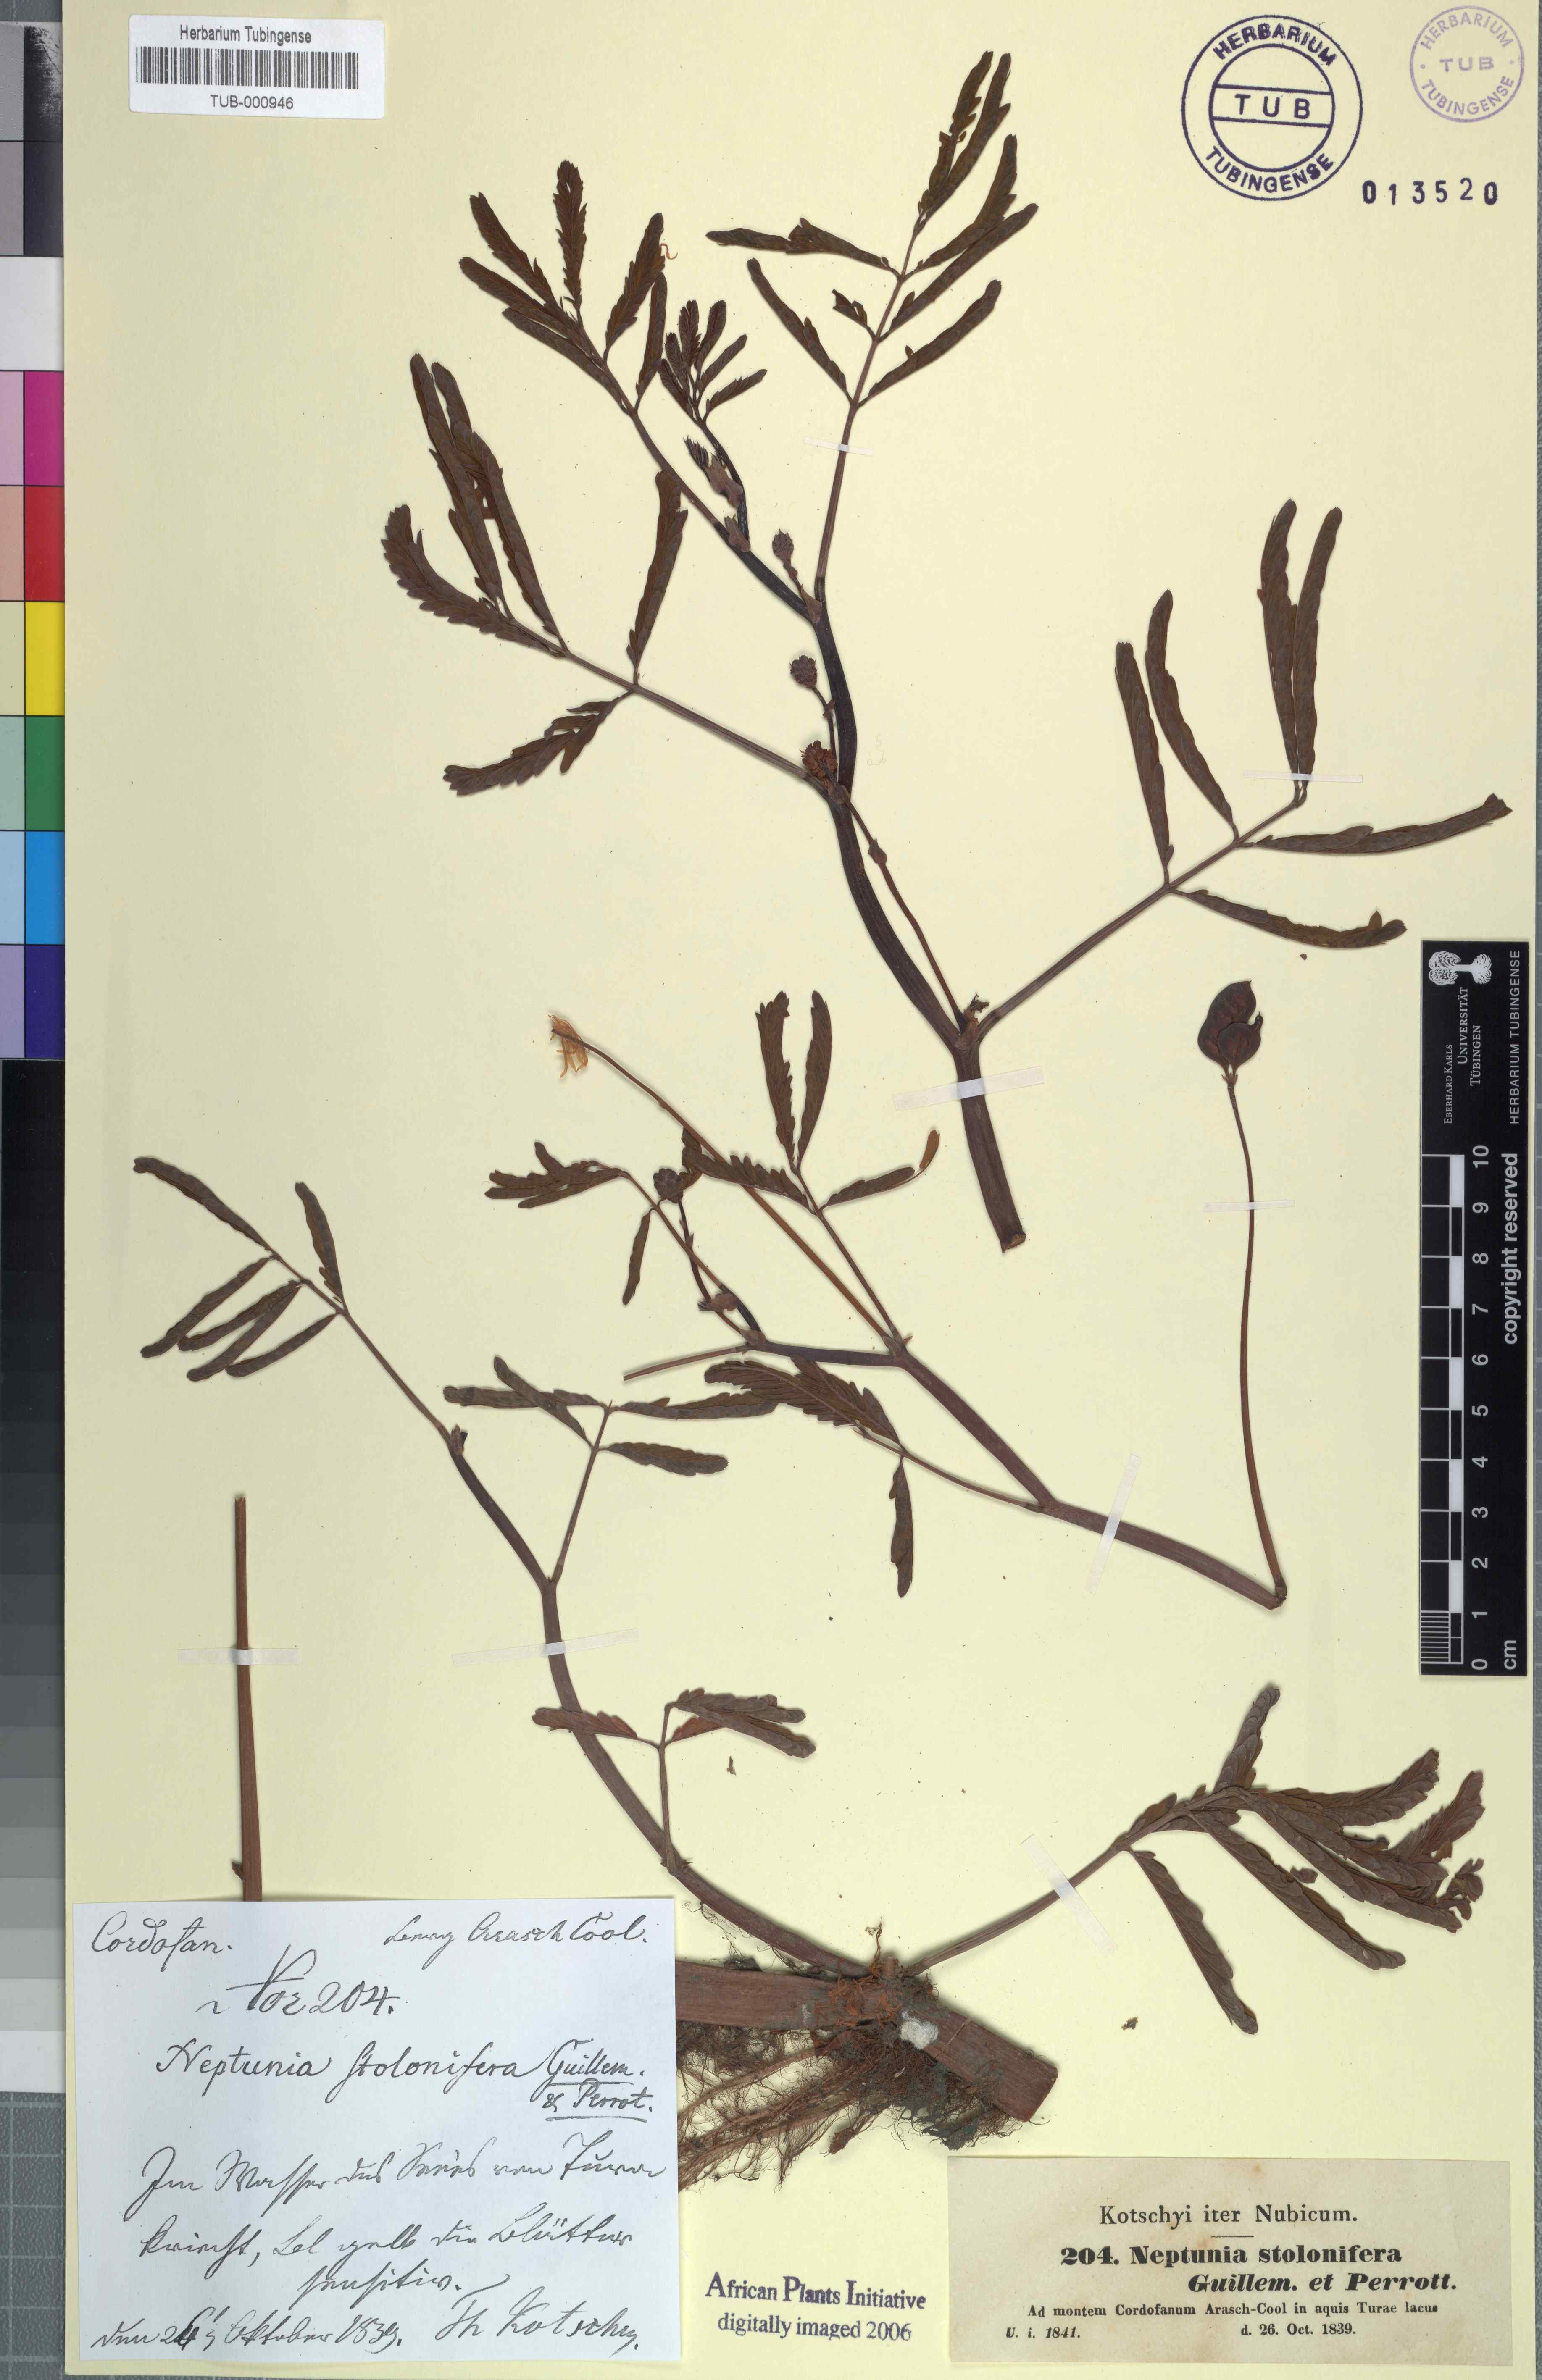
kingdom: Plantae
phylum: Tracheophyta
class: Magnoliopsida
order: Fabales
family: Fabaceae
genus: Neptunia
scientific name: Neptunia prostrata
